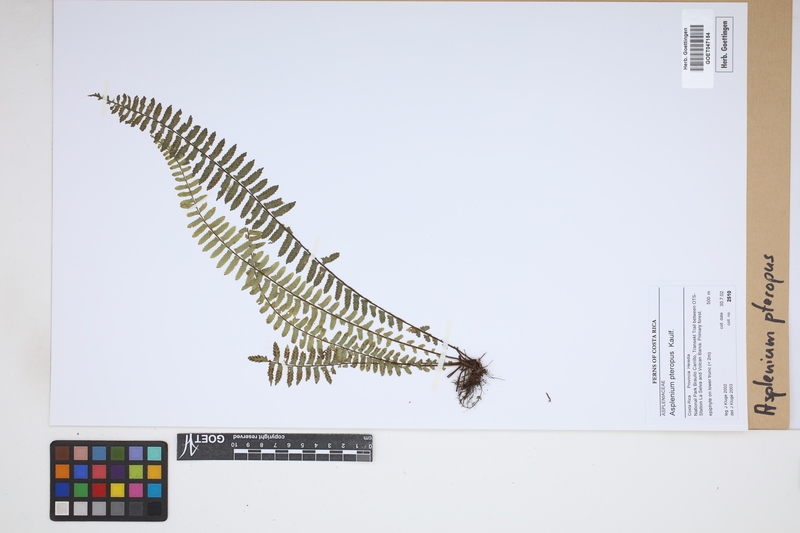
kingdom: Plantae
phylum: Tracheophyta
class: Polypodiopsida
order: Polypodiales
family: Aspleniaceae
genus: Asplenium
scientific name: Asplenium pteropus
